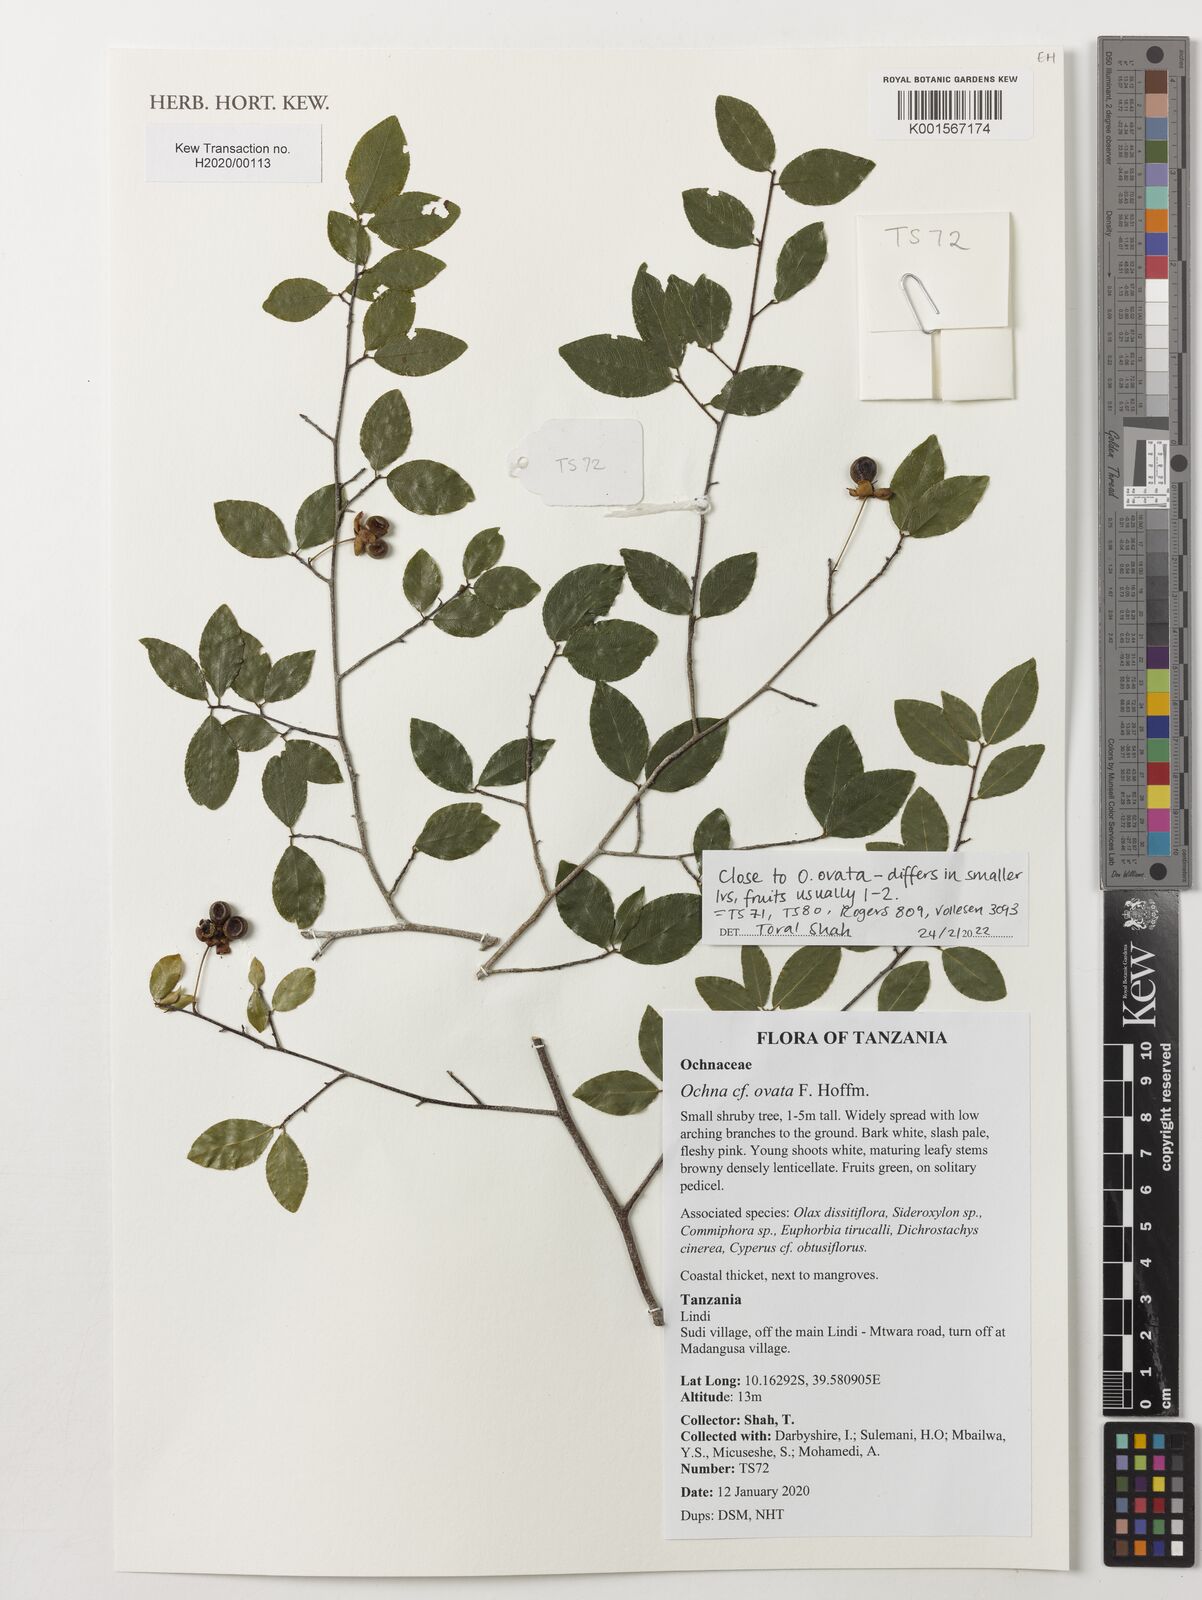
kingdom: Plantae
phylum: Tracheophyta
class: Magnoliopsida
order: Malpighiales
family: Ochnaceae
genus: Ochna
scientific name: Ochna ovata
